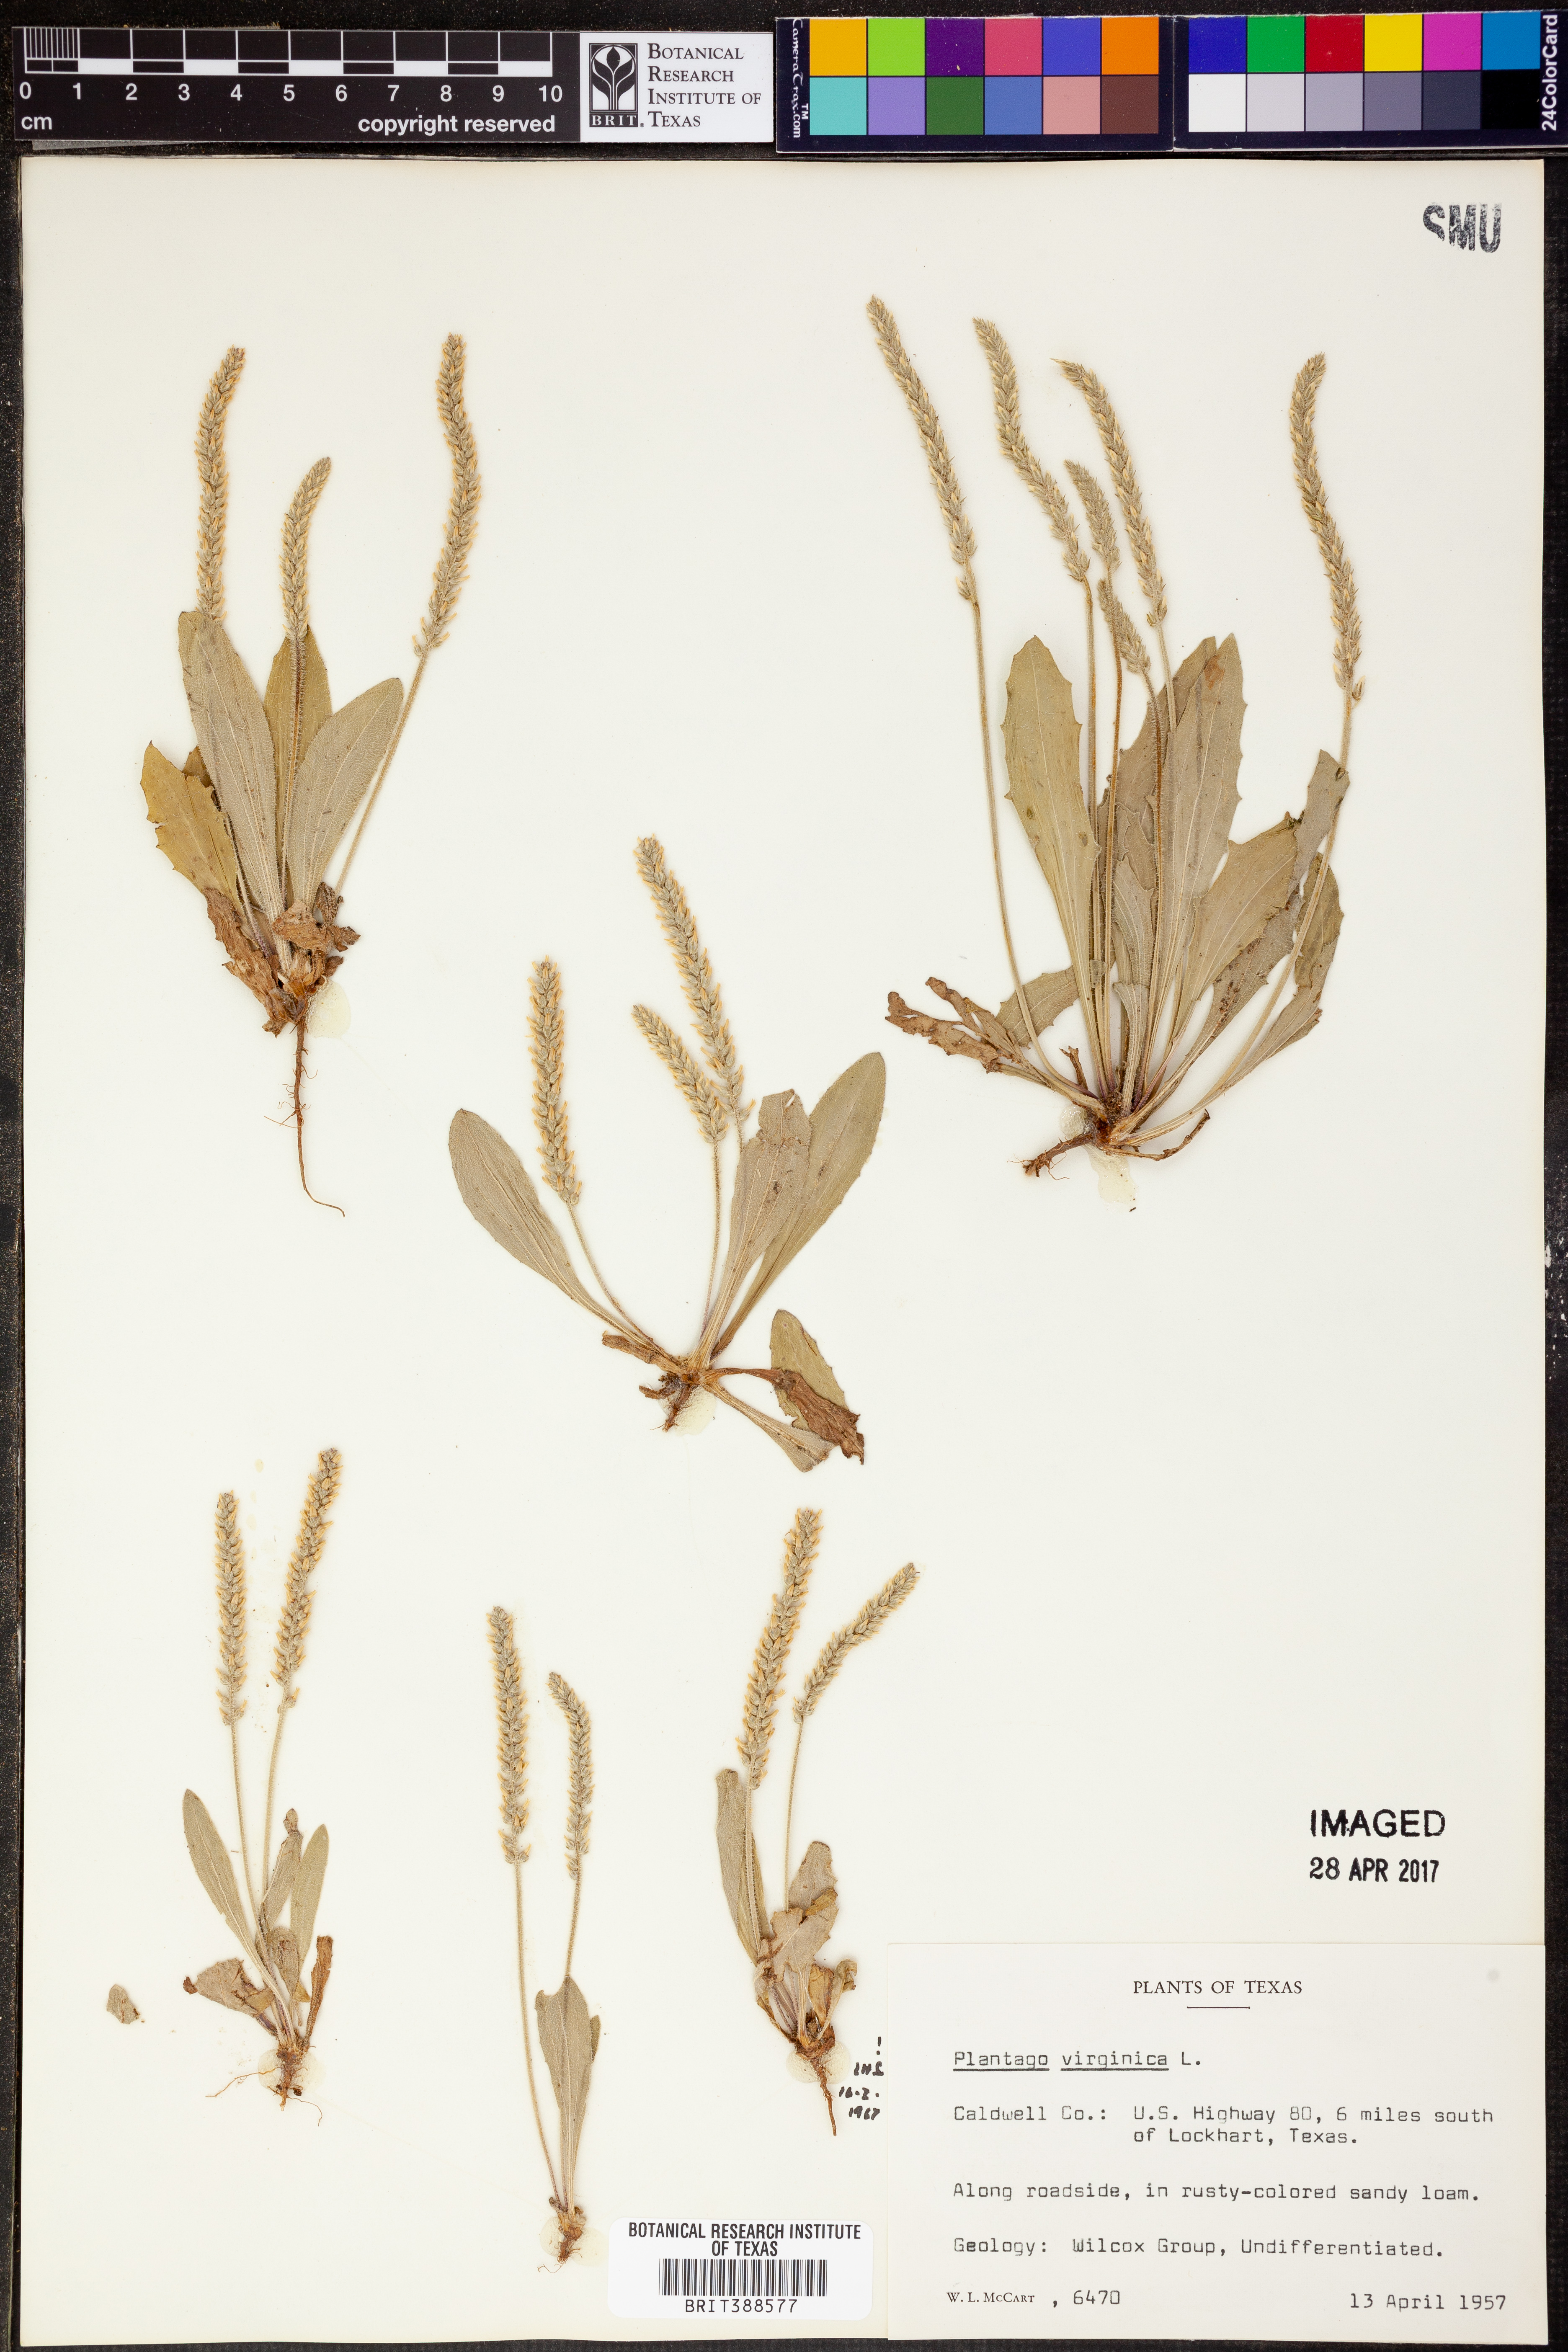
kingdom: Plantae
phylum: Tracheophyta
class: Magnoliopsida
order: Lamiales
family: Plantaginaceae
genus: Plantago
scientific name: Plantago virginica
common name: Hoary plantain
